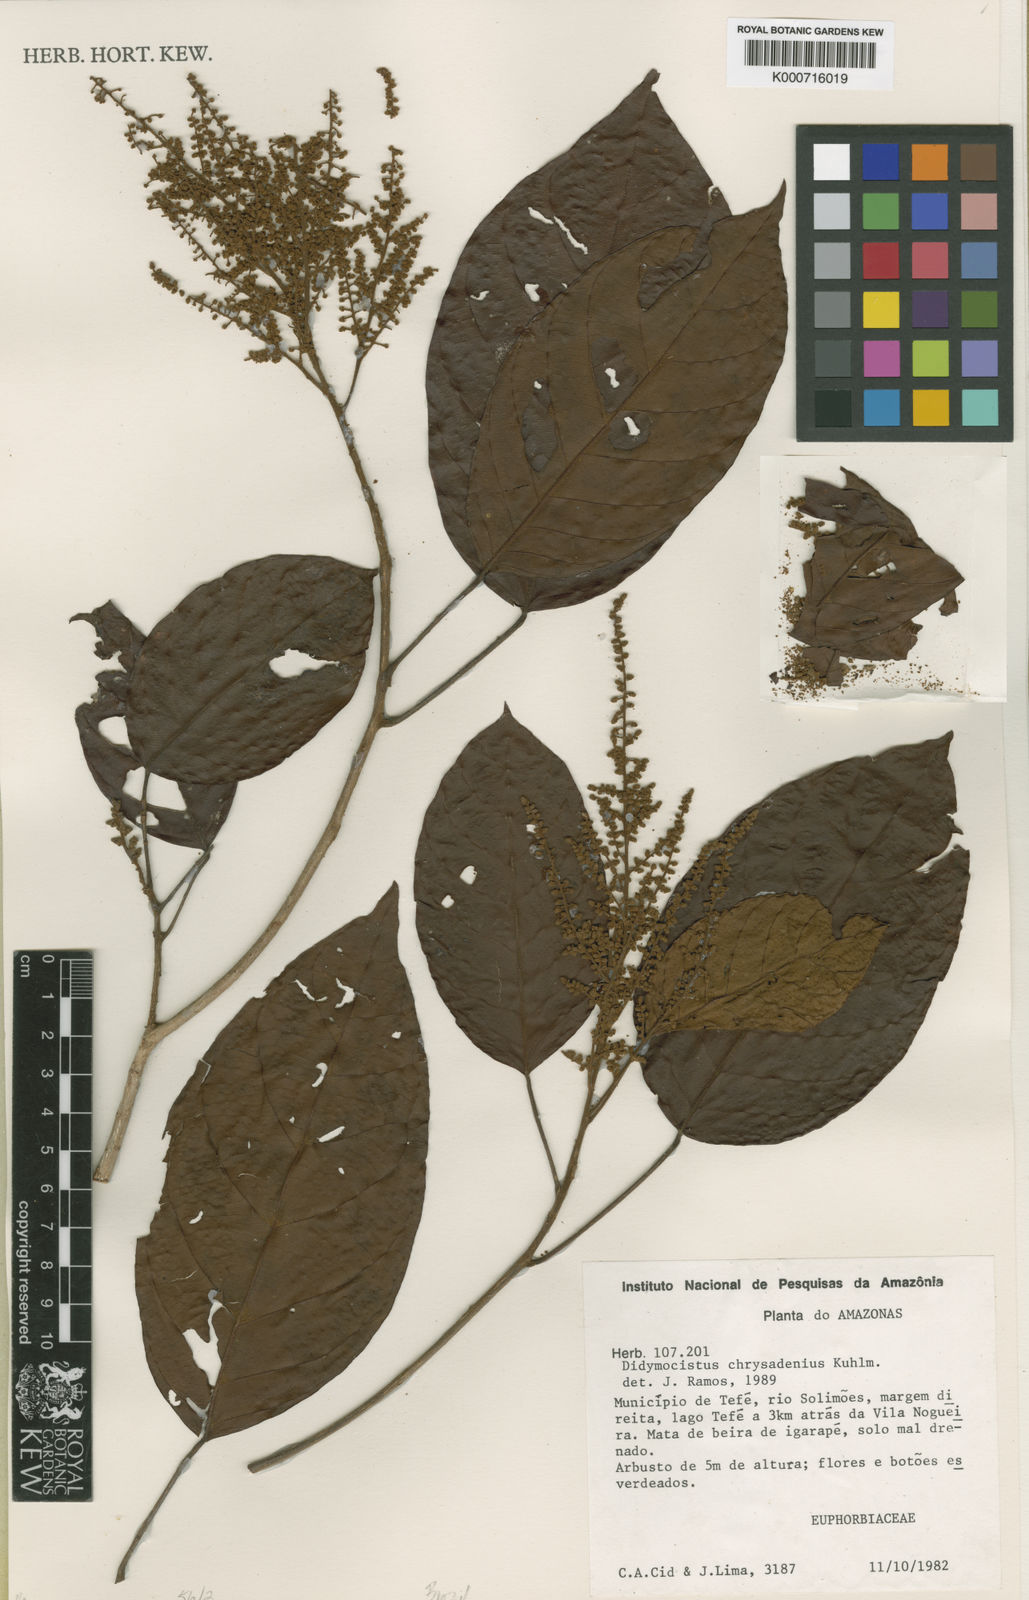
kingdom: Plantae
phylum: Tracheophyta
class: Magnoliopsida
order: Malpighiales
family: Phyllanthaceae
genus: Didymocistus
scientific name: Didymocistus chrysadenius
